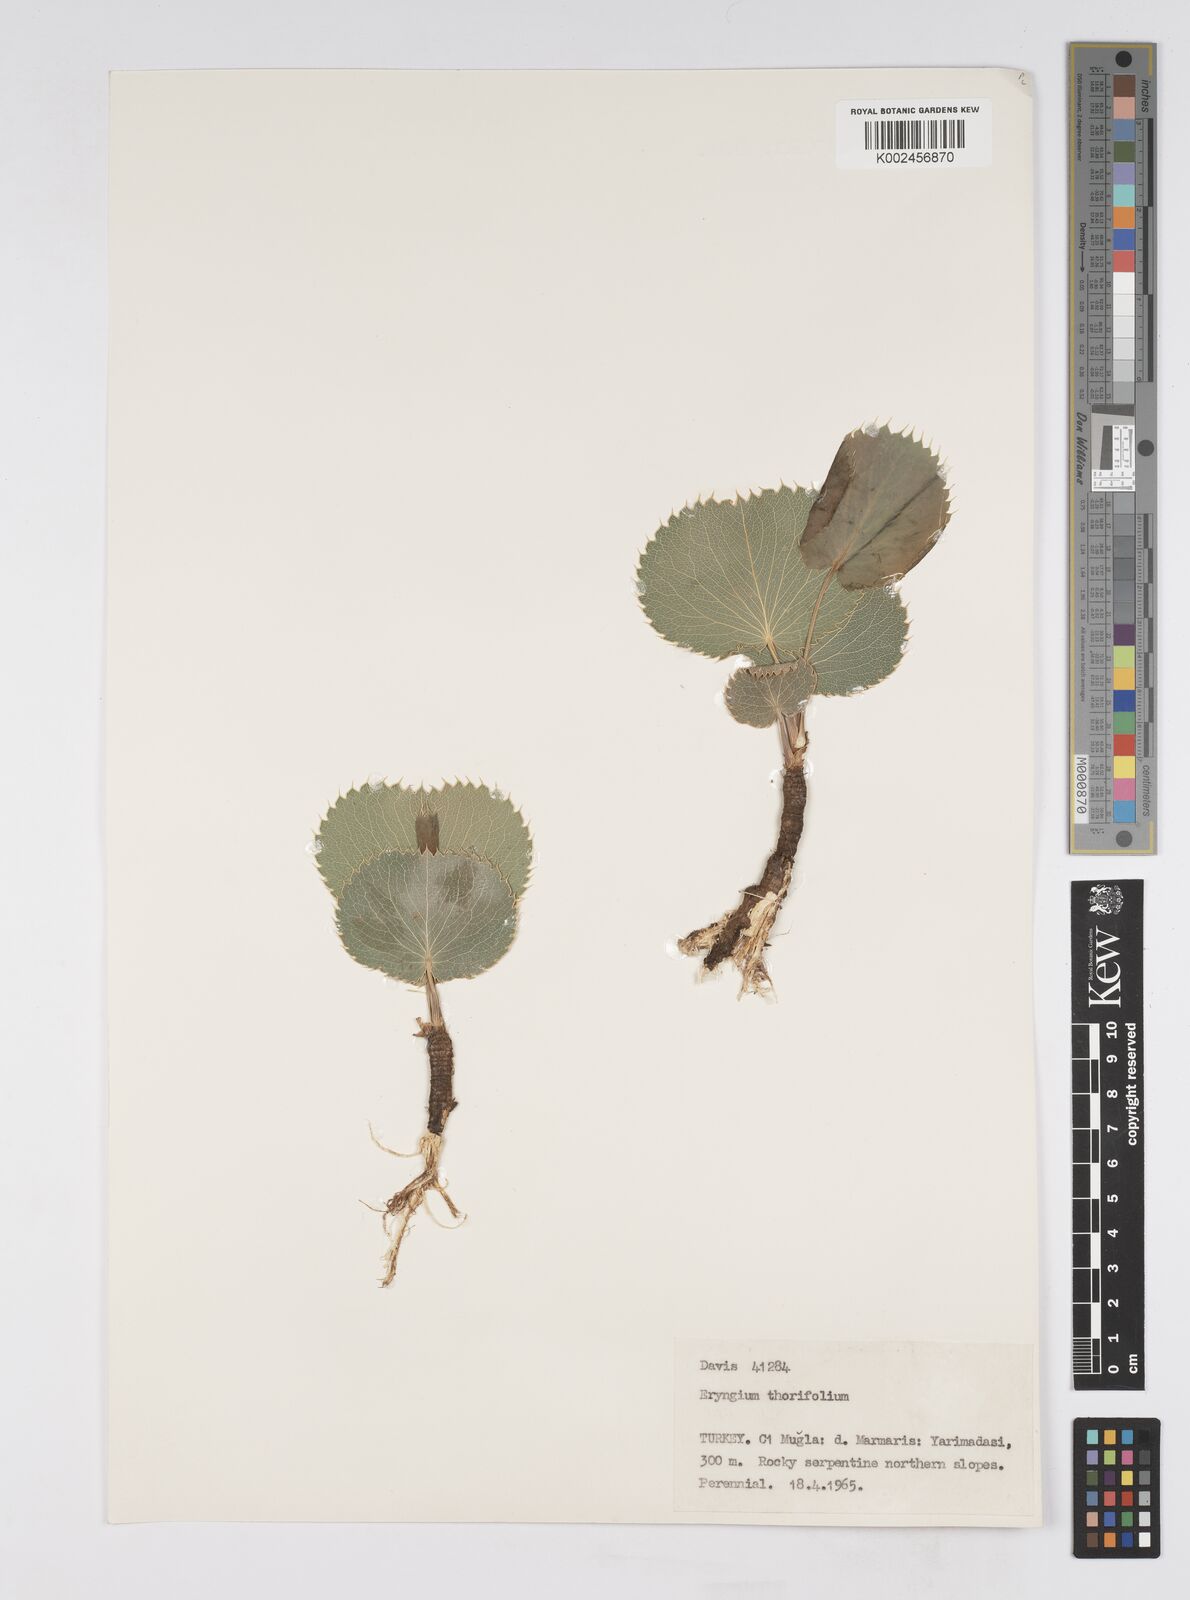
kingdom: Plantae
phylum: Tracheophyta
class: Magnoliopsida
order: Apiales
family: Apiaceae
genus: Eryngium
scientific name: Eryngium thorifolium
